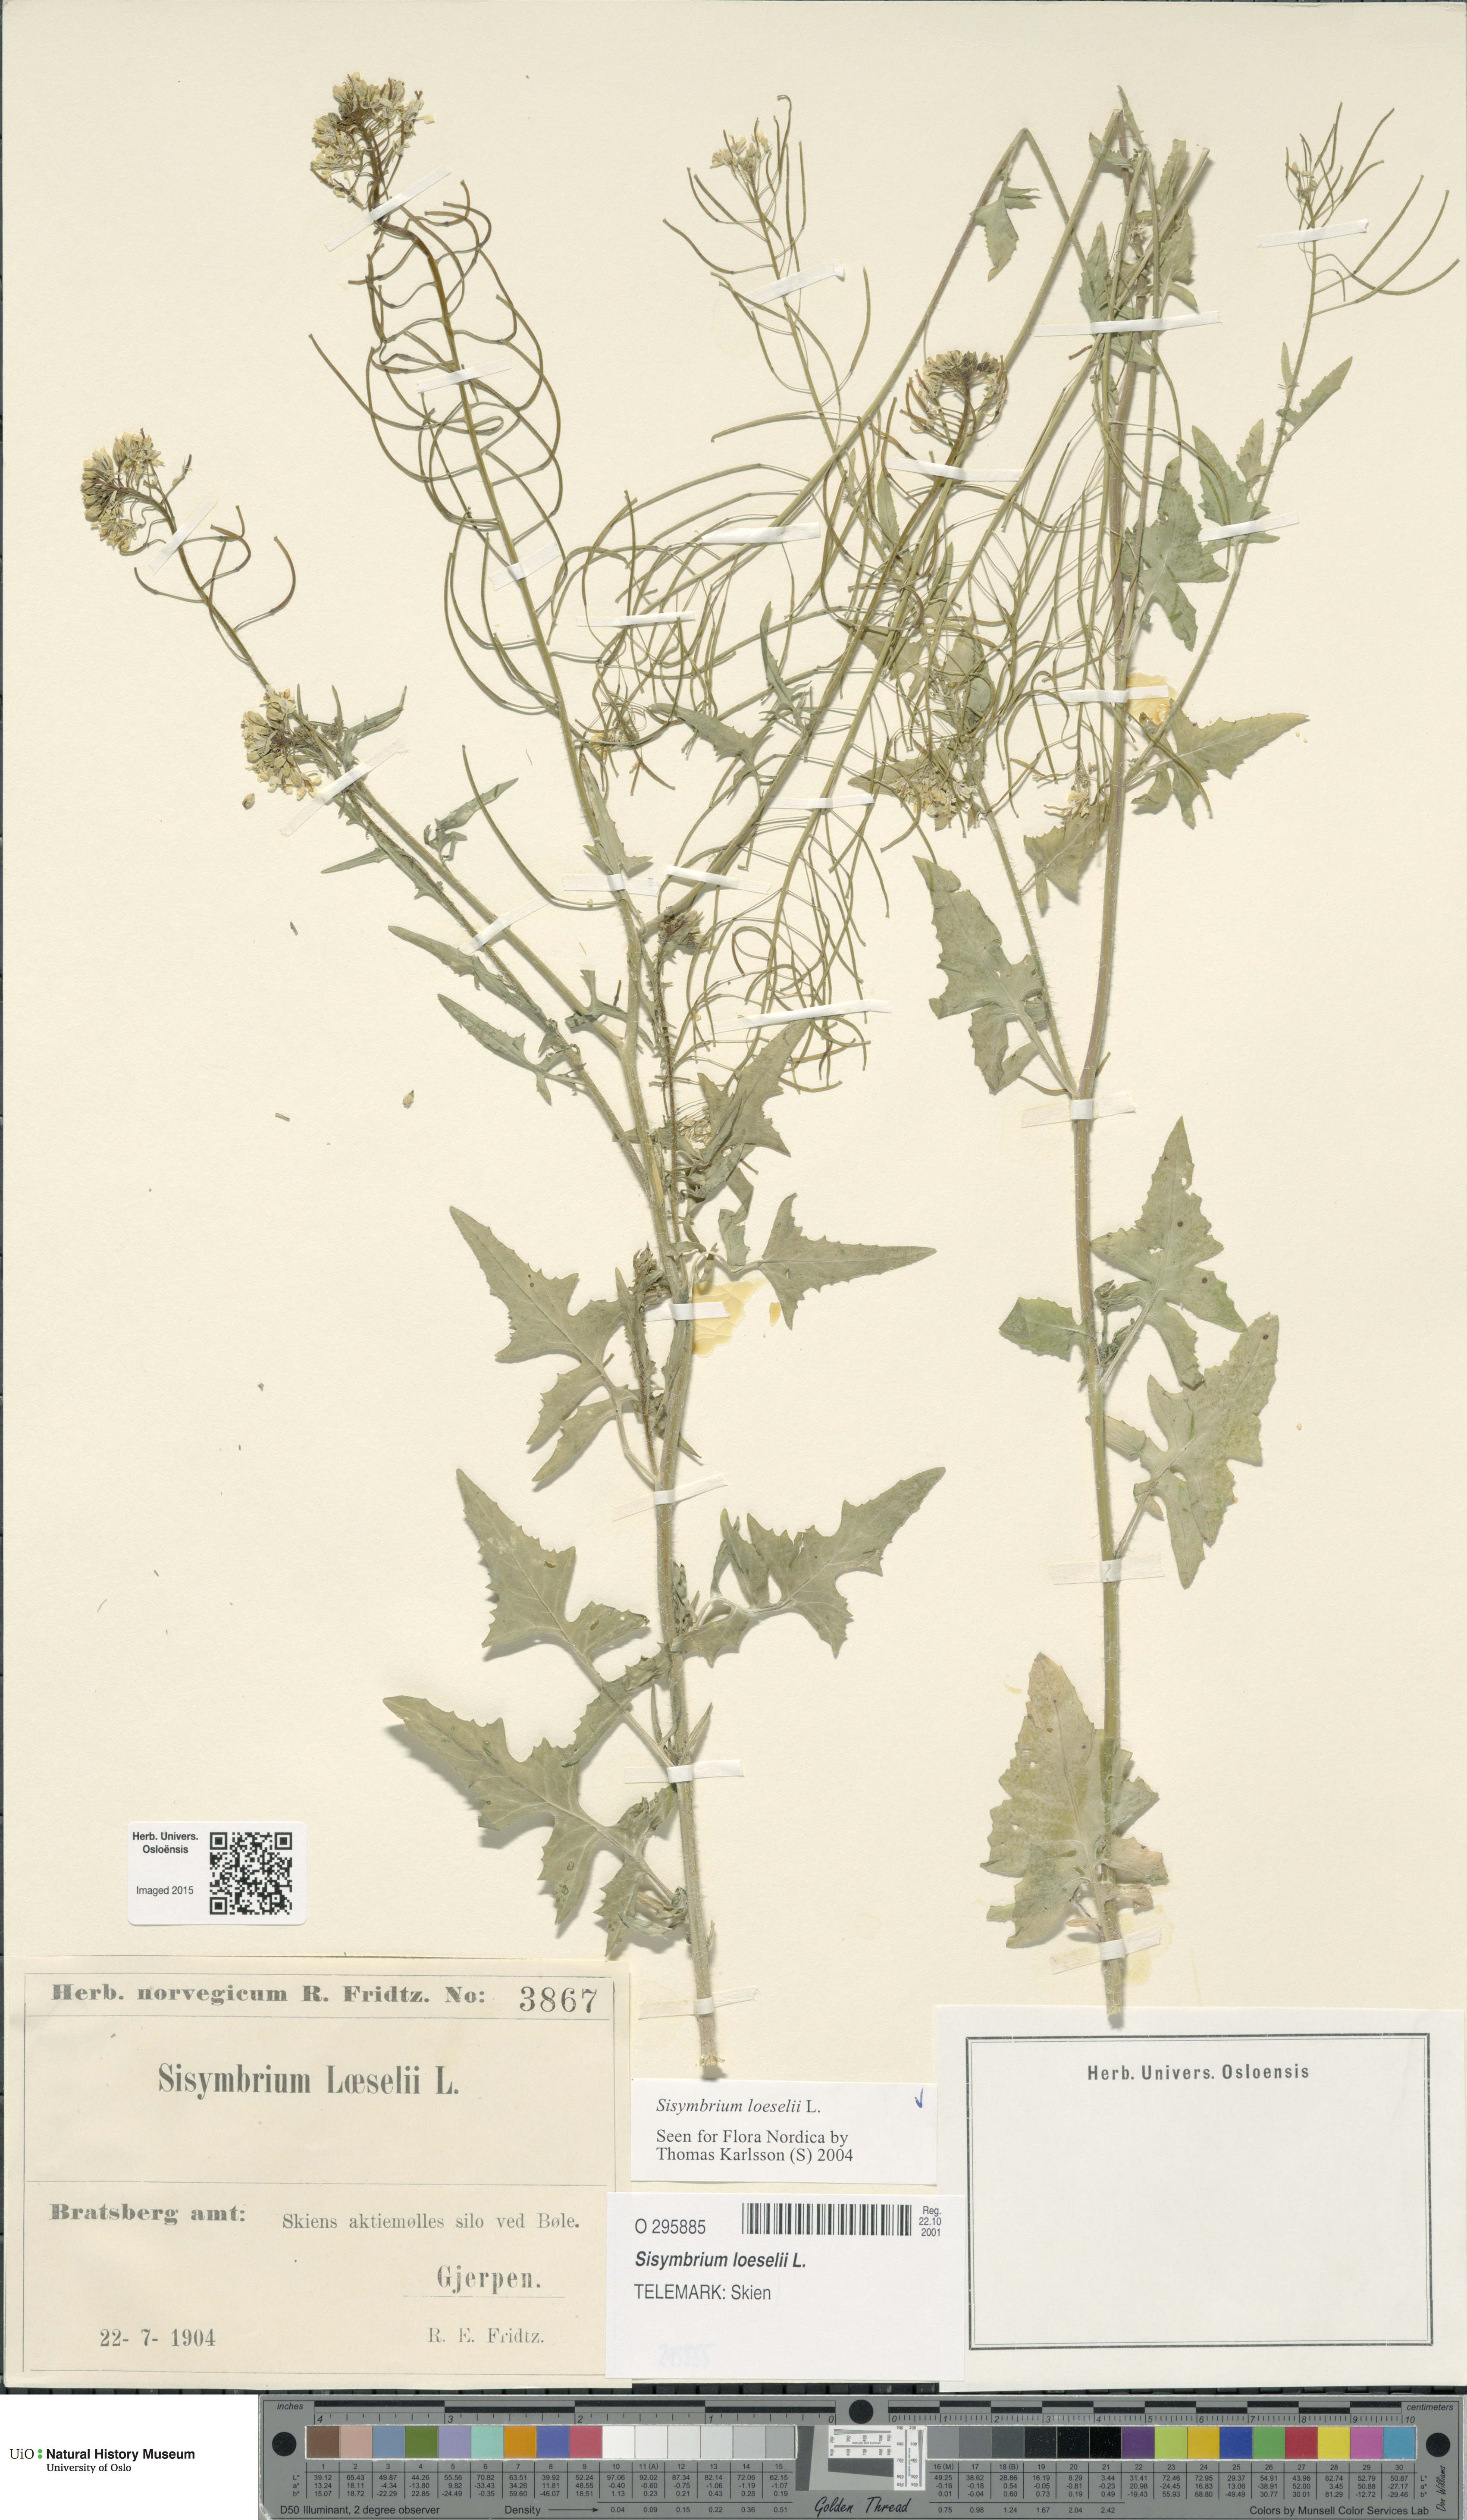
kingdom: Plantae
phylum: Tracheophyta
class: Magnoliopsida
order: Brassicales
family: Brassicaceae
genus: Sisymbrium
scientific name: Sisymbrium loeselii
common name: False london-rocket
